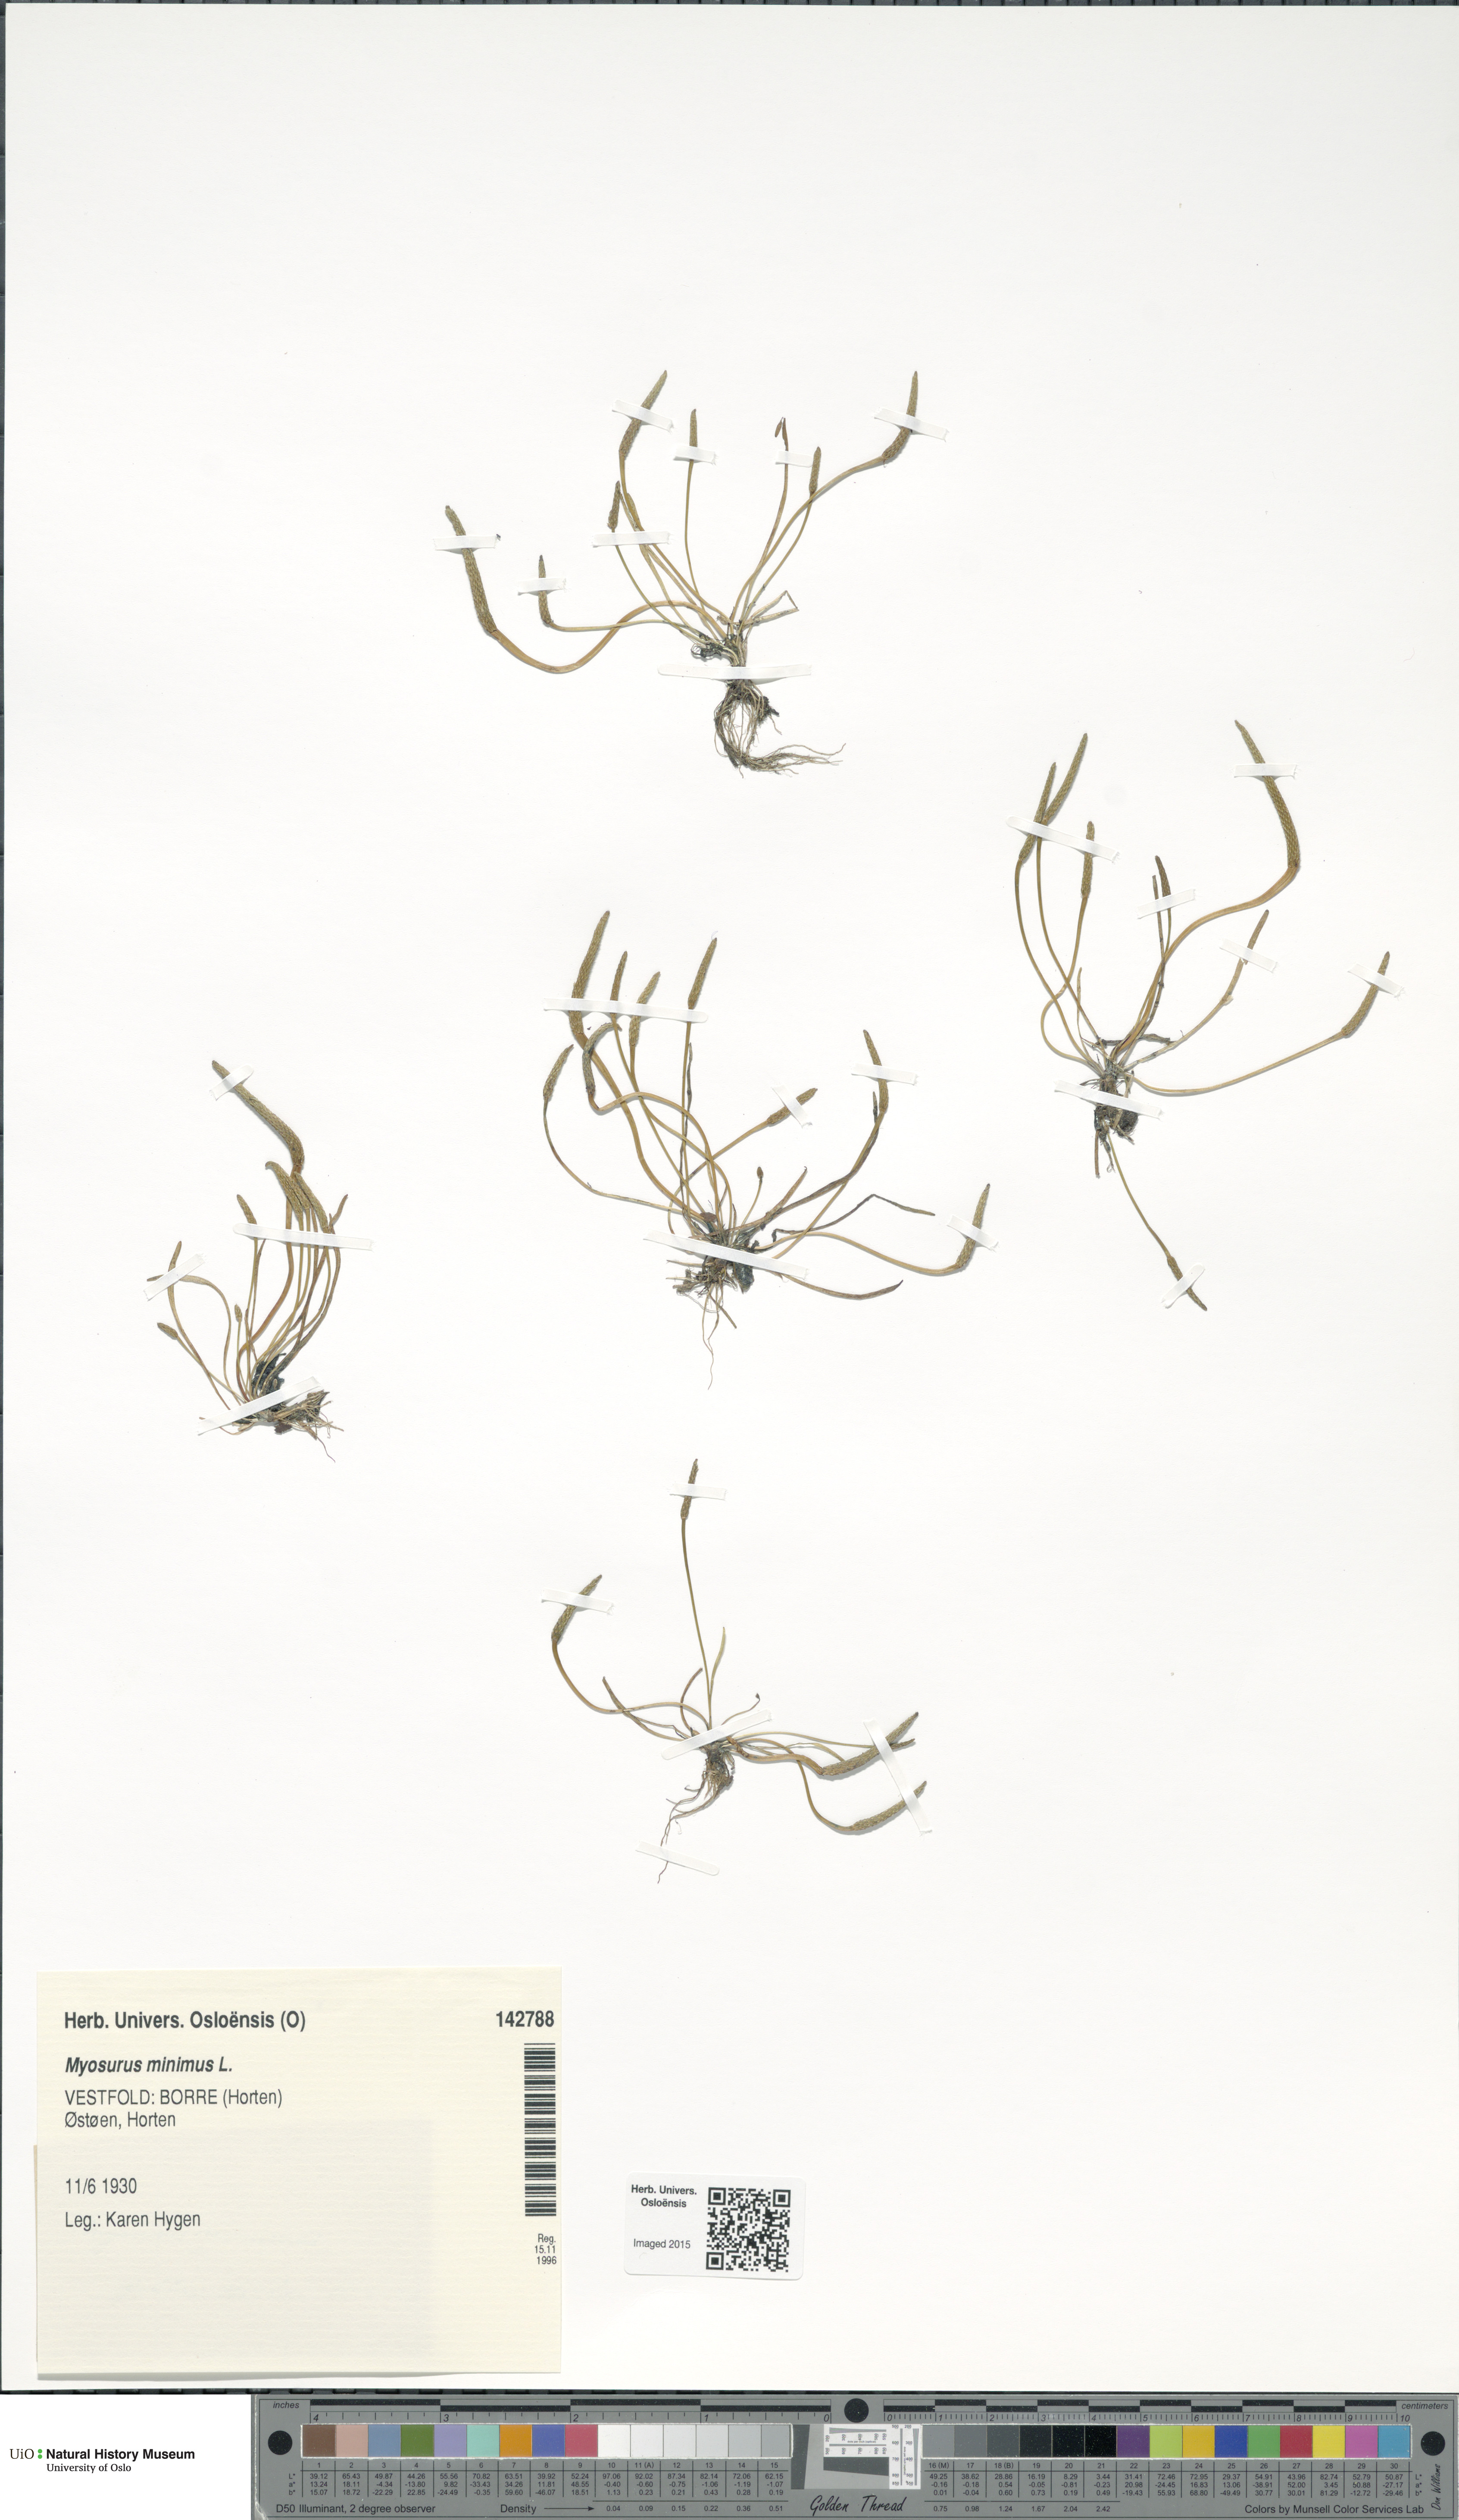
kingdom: Plantae
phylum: Tracheophyta
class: Magnoliopsida
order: Ranunculales
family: Ranunculaceae
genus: Myosurus
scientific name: Myosurus minimus
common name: Mousetail
